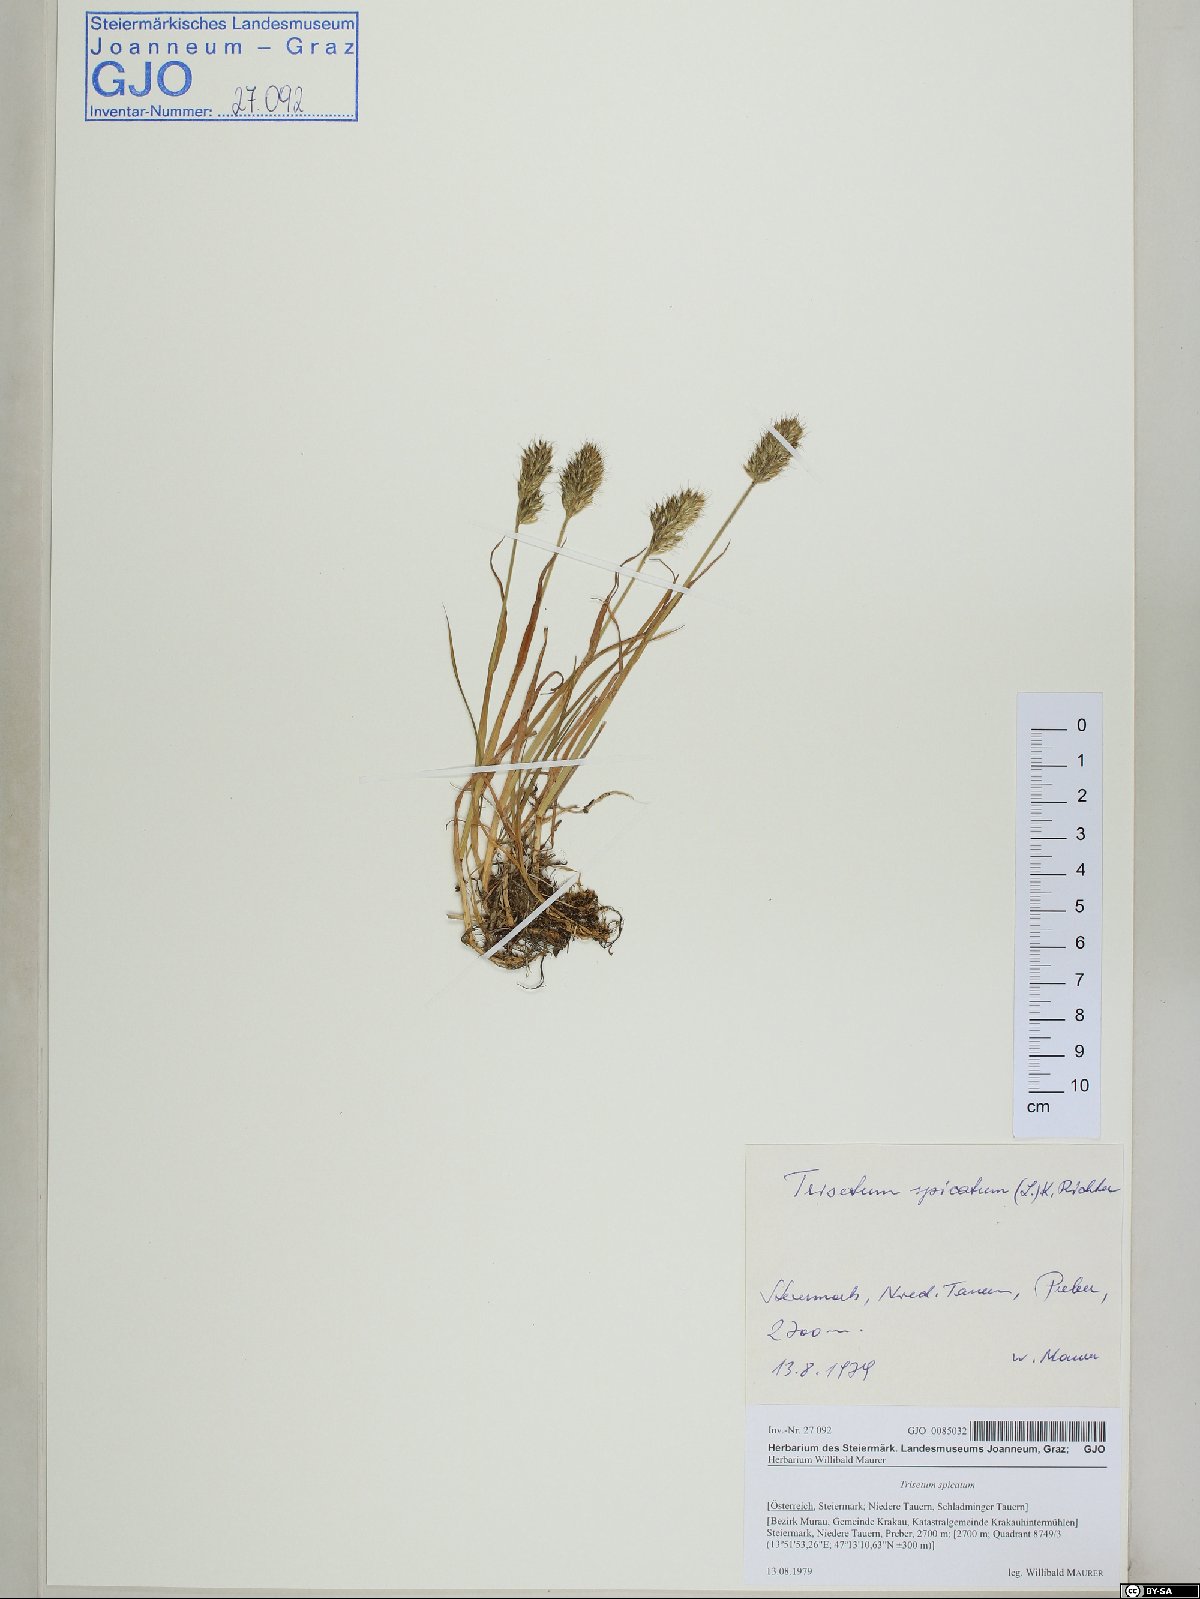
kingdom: Plantae
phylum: Tracheophyta
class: Liliopsida
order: Poales
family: Poaceae
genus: Koeleria
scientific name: Koeleria spicata
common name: Mountain trisetum
